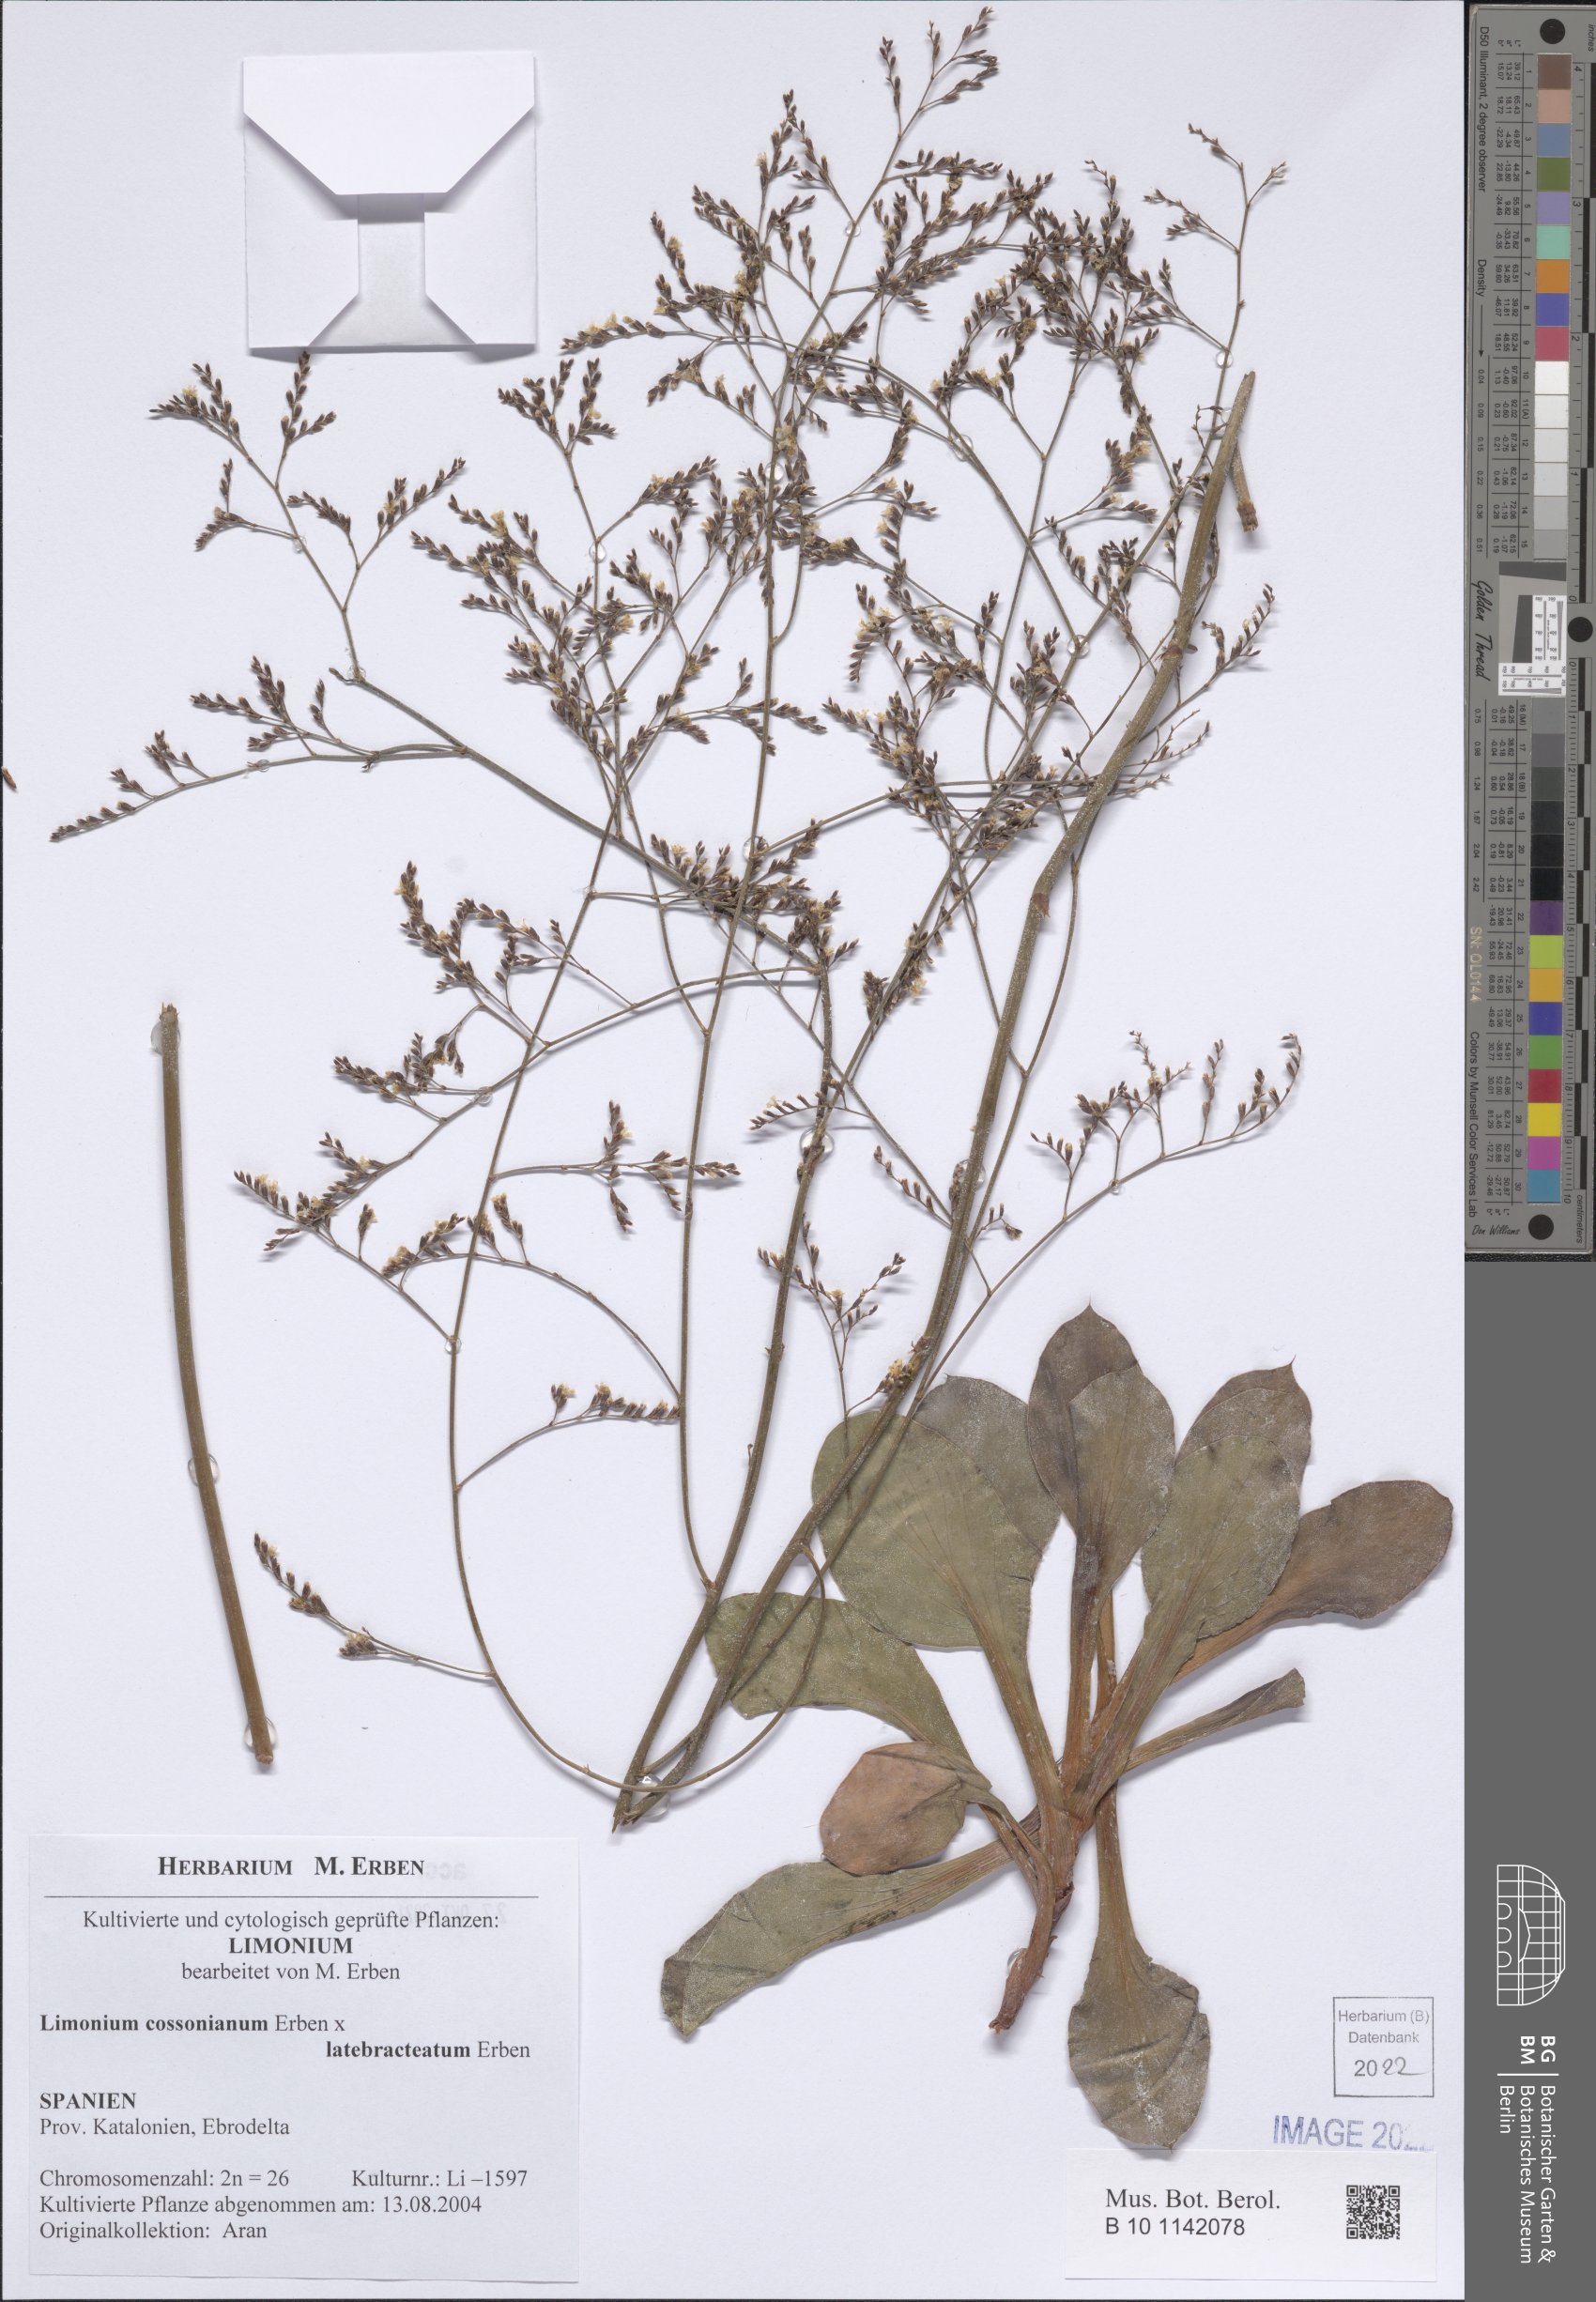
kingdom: Plantae
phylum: Tracheophyta
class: Magnoliopsida
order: Caryophyllales
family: Plumbaginaceae
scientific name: Plumbaginaceae
